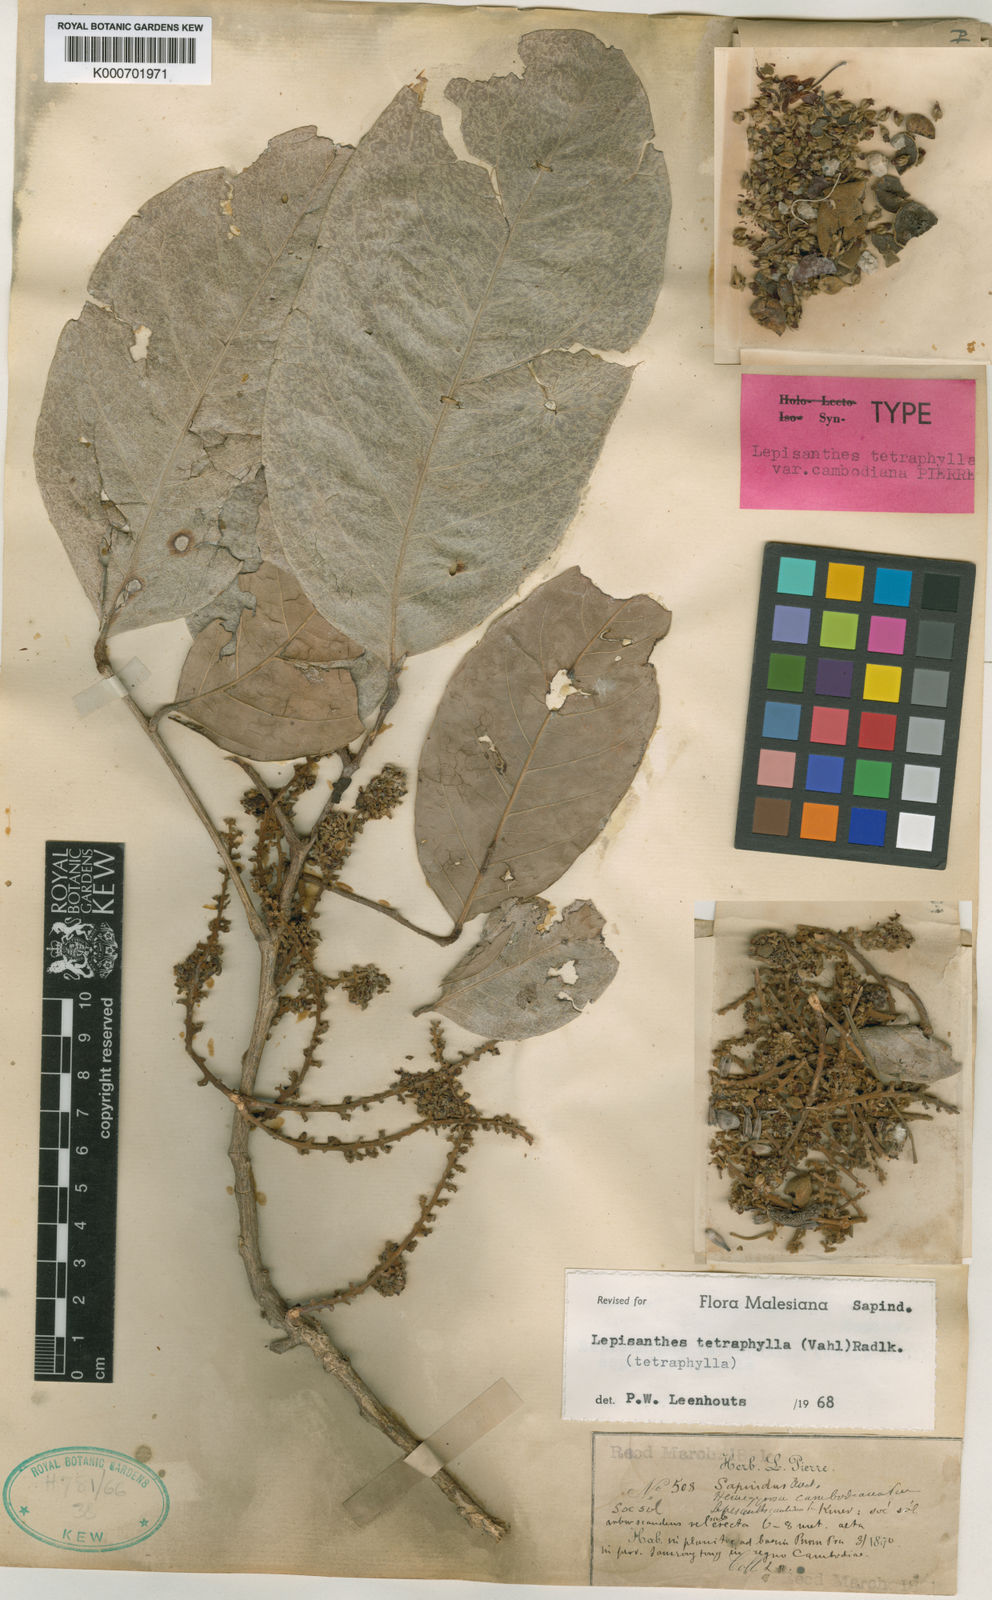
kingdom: Plantae
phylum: Tracheophyta
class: Magnoliopsida
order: Sapindales
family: Sapindaceae
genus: Lepisanthes
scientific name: Lepisanthes tetraphylla
